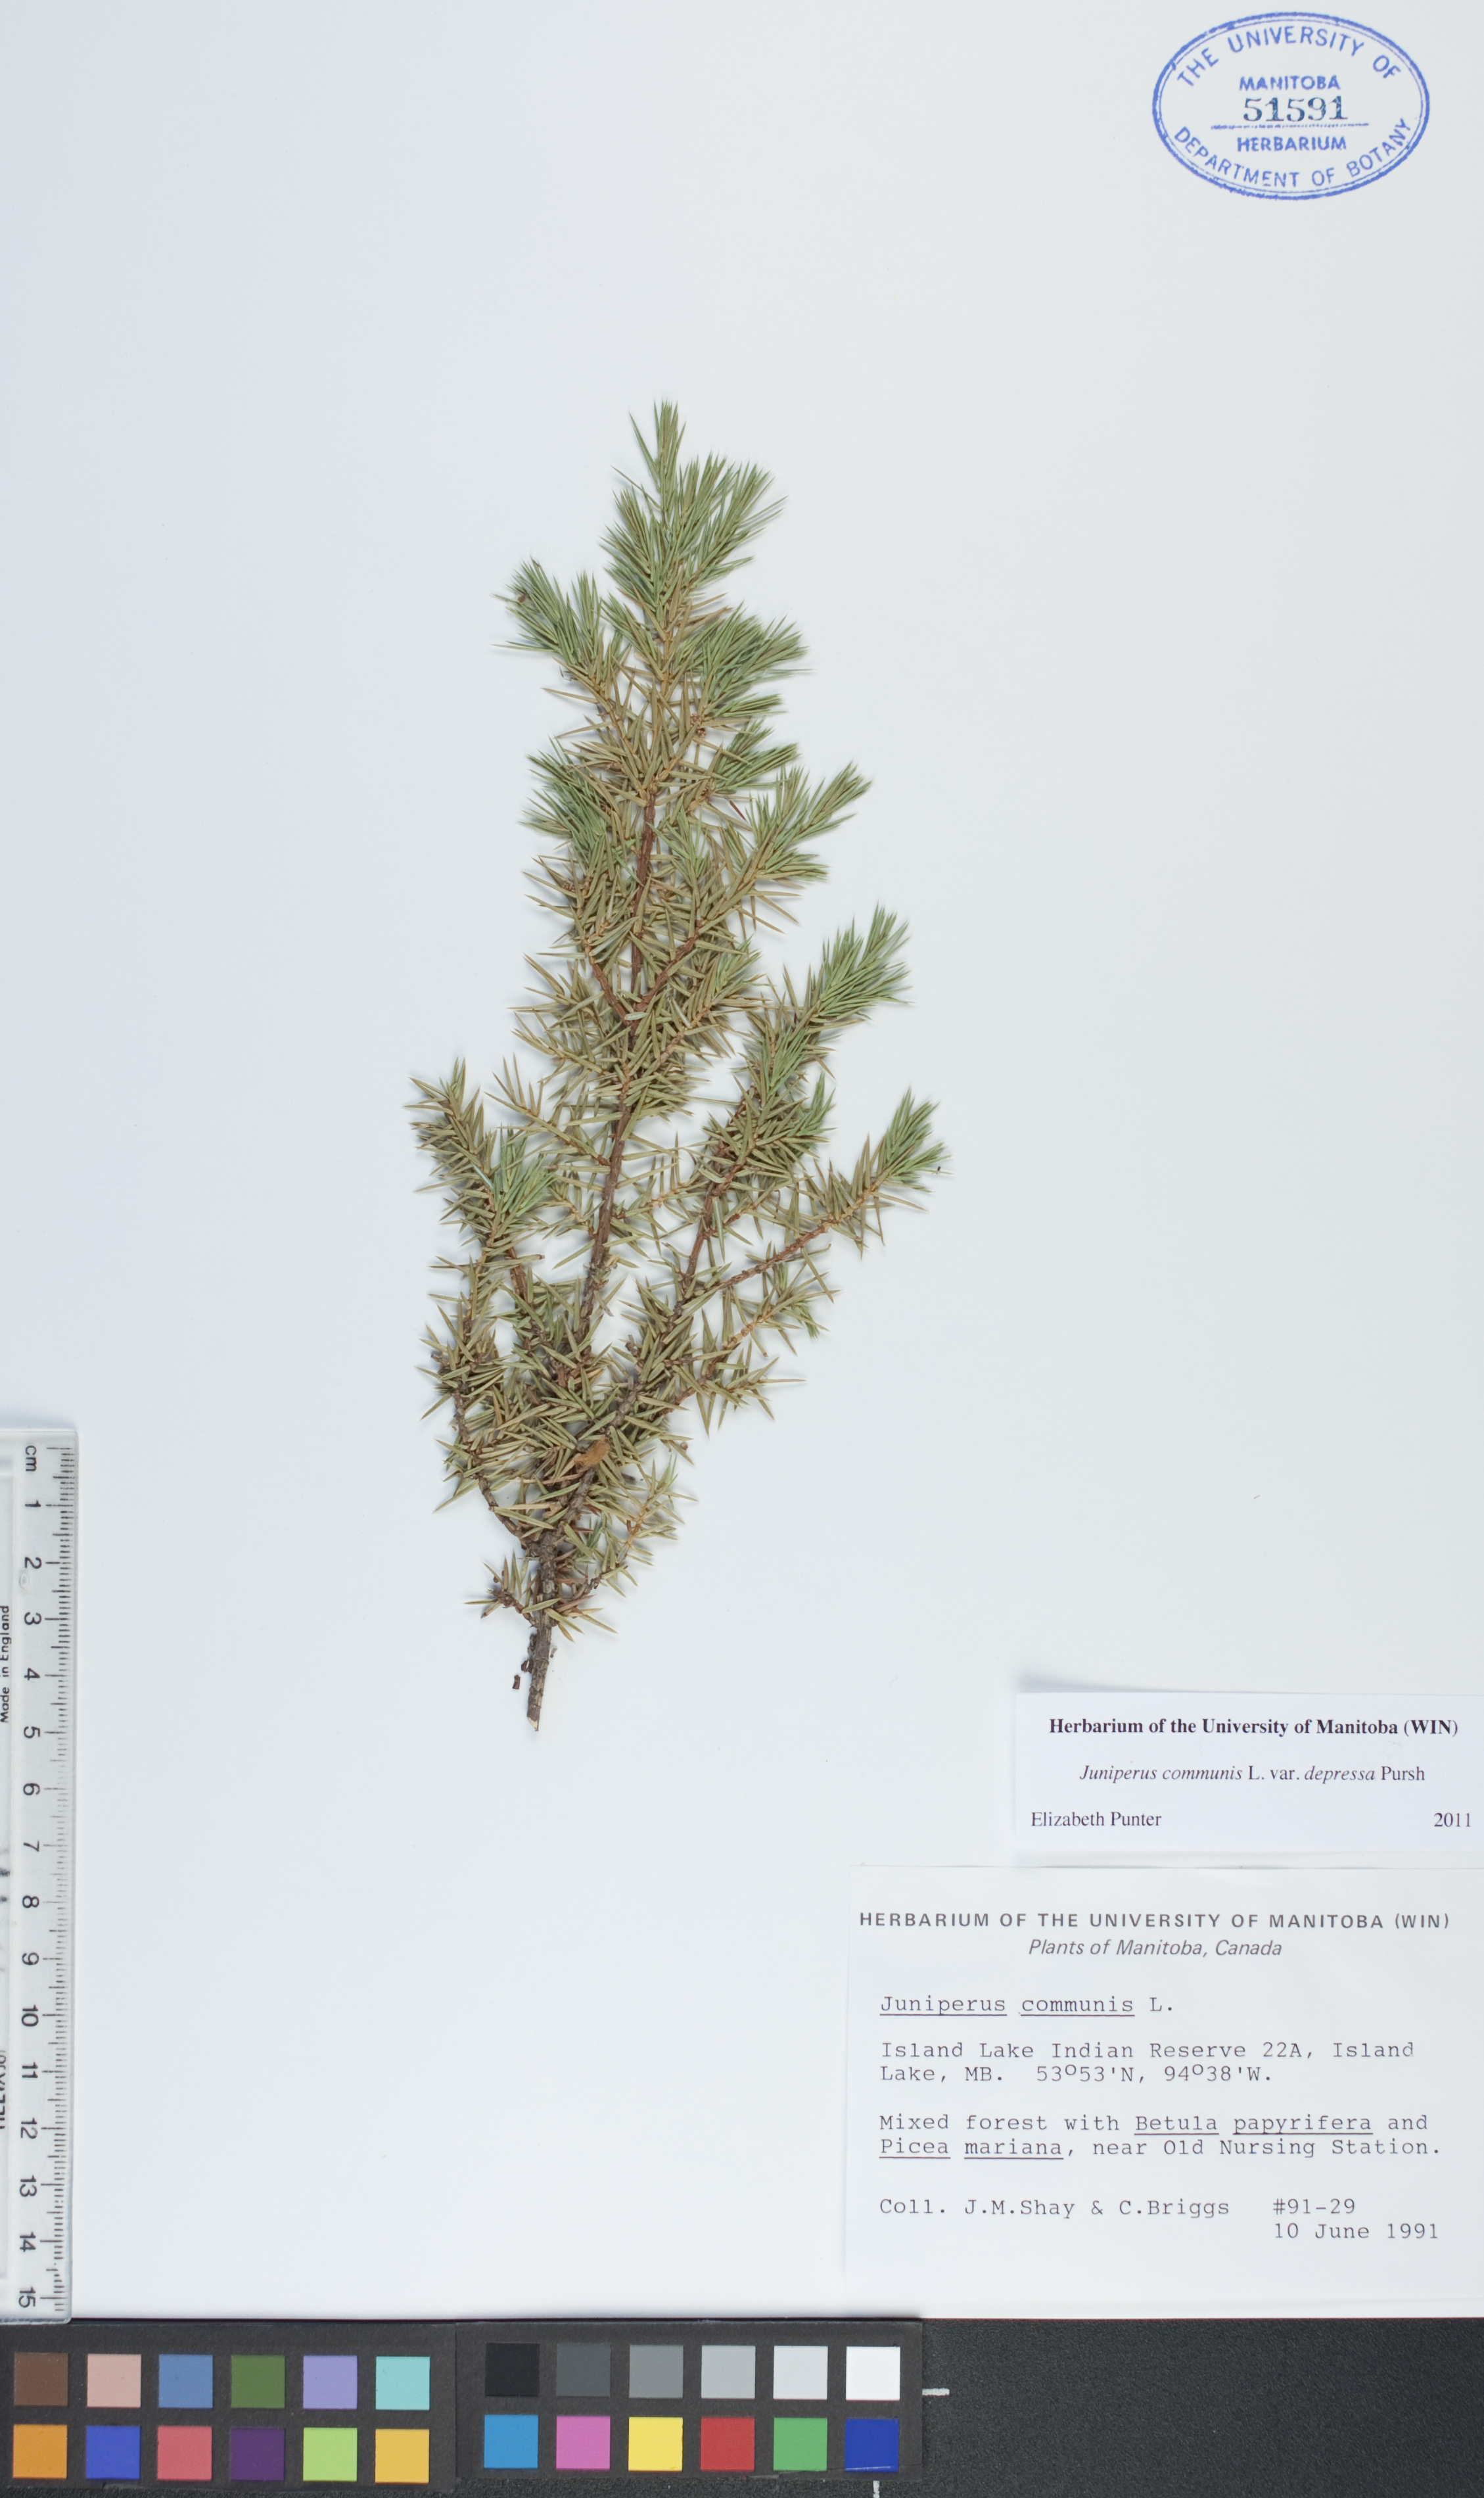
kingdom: Plantae
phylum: Tracheophyta
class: Pinopsida
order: Pinales
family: Cupressaceae
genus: Juniperus
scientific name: Juniperus communis
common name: Common juniper
